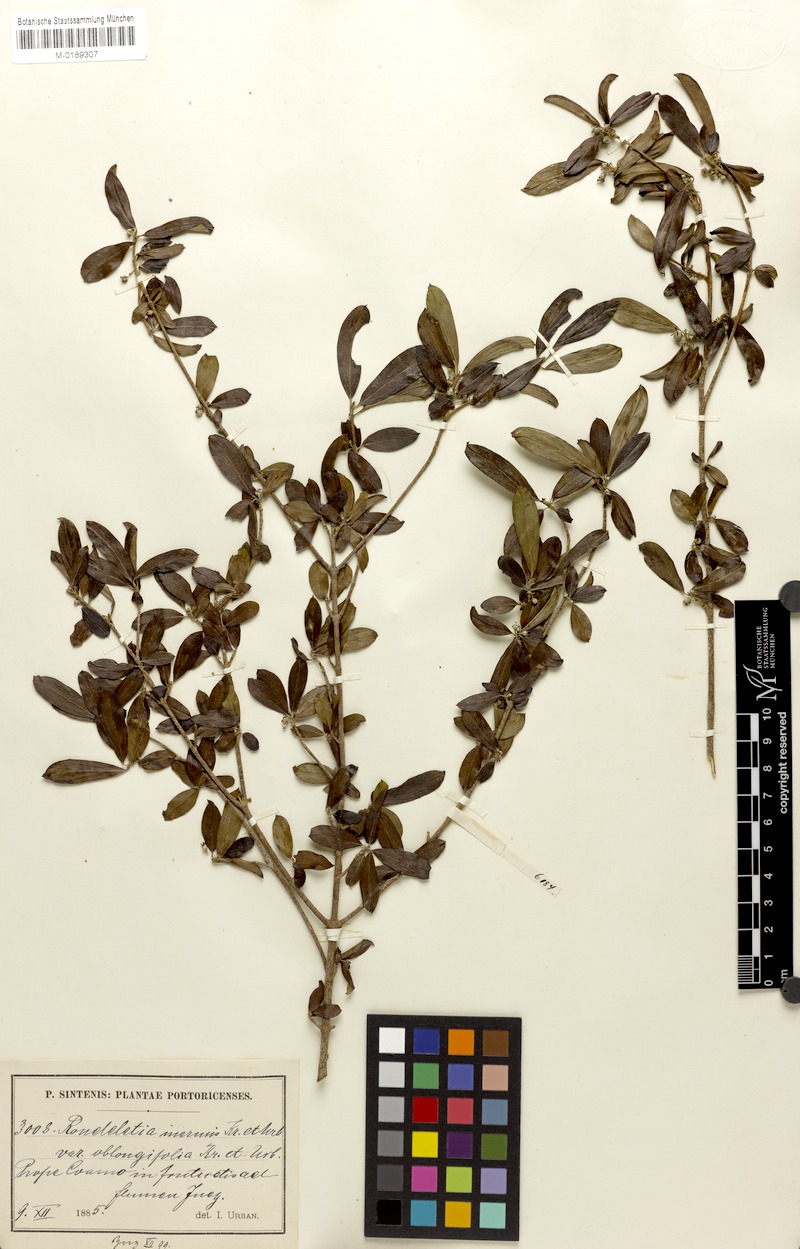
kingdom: Plantae
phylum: Tracheophyta
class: Magnoliopsida
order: Gentianales
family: Rubiaceae
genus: Rondeletia
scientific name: Rondeletia inermis
